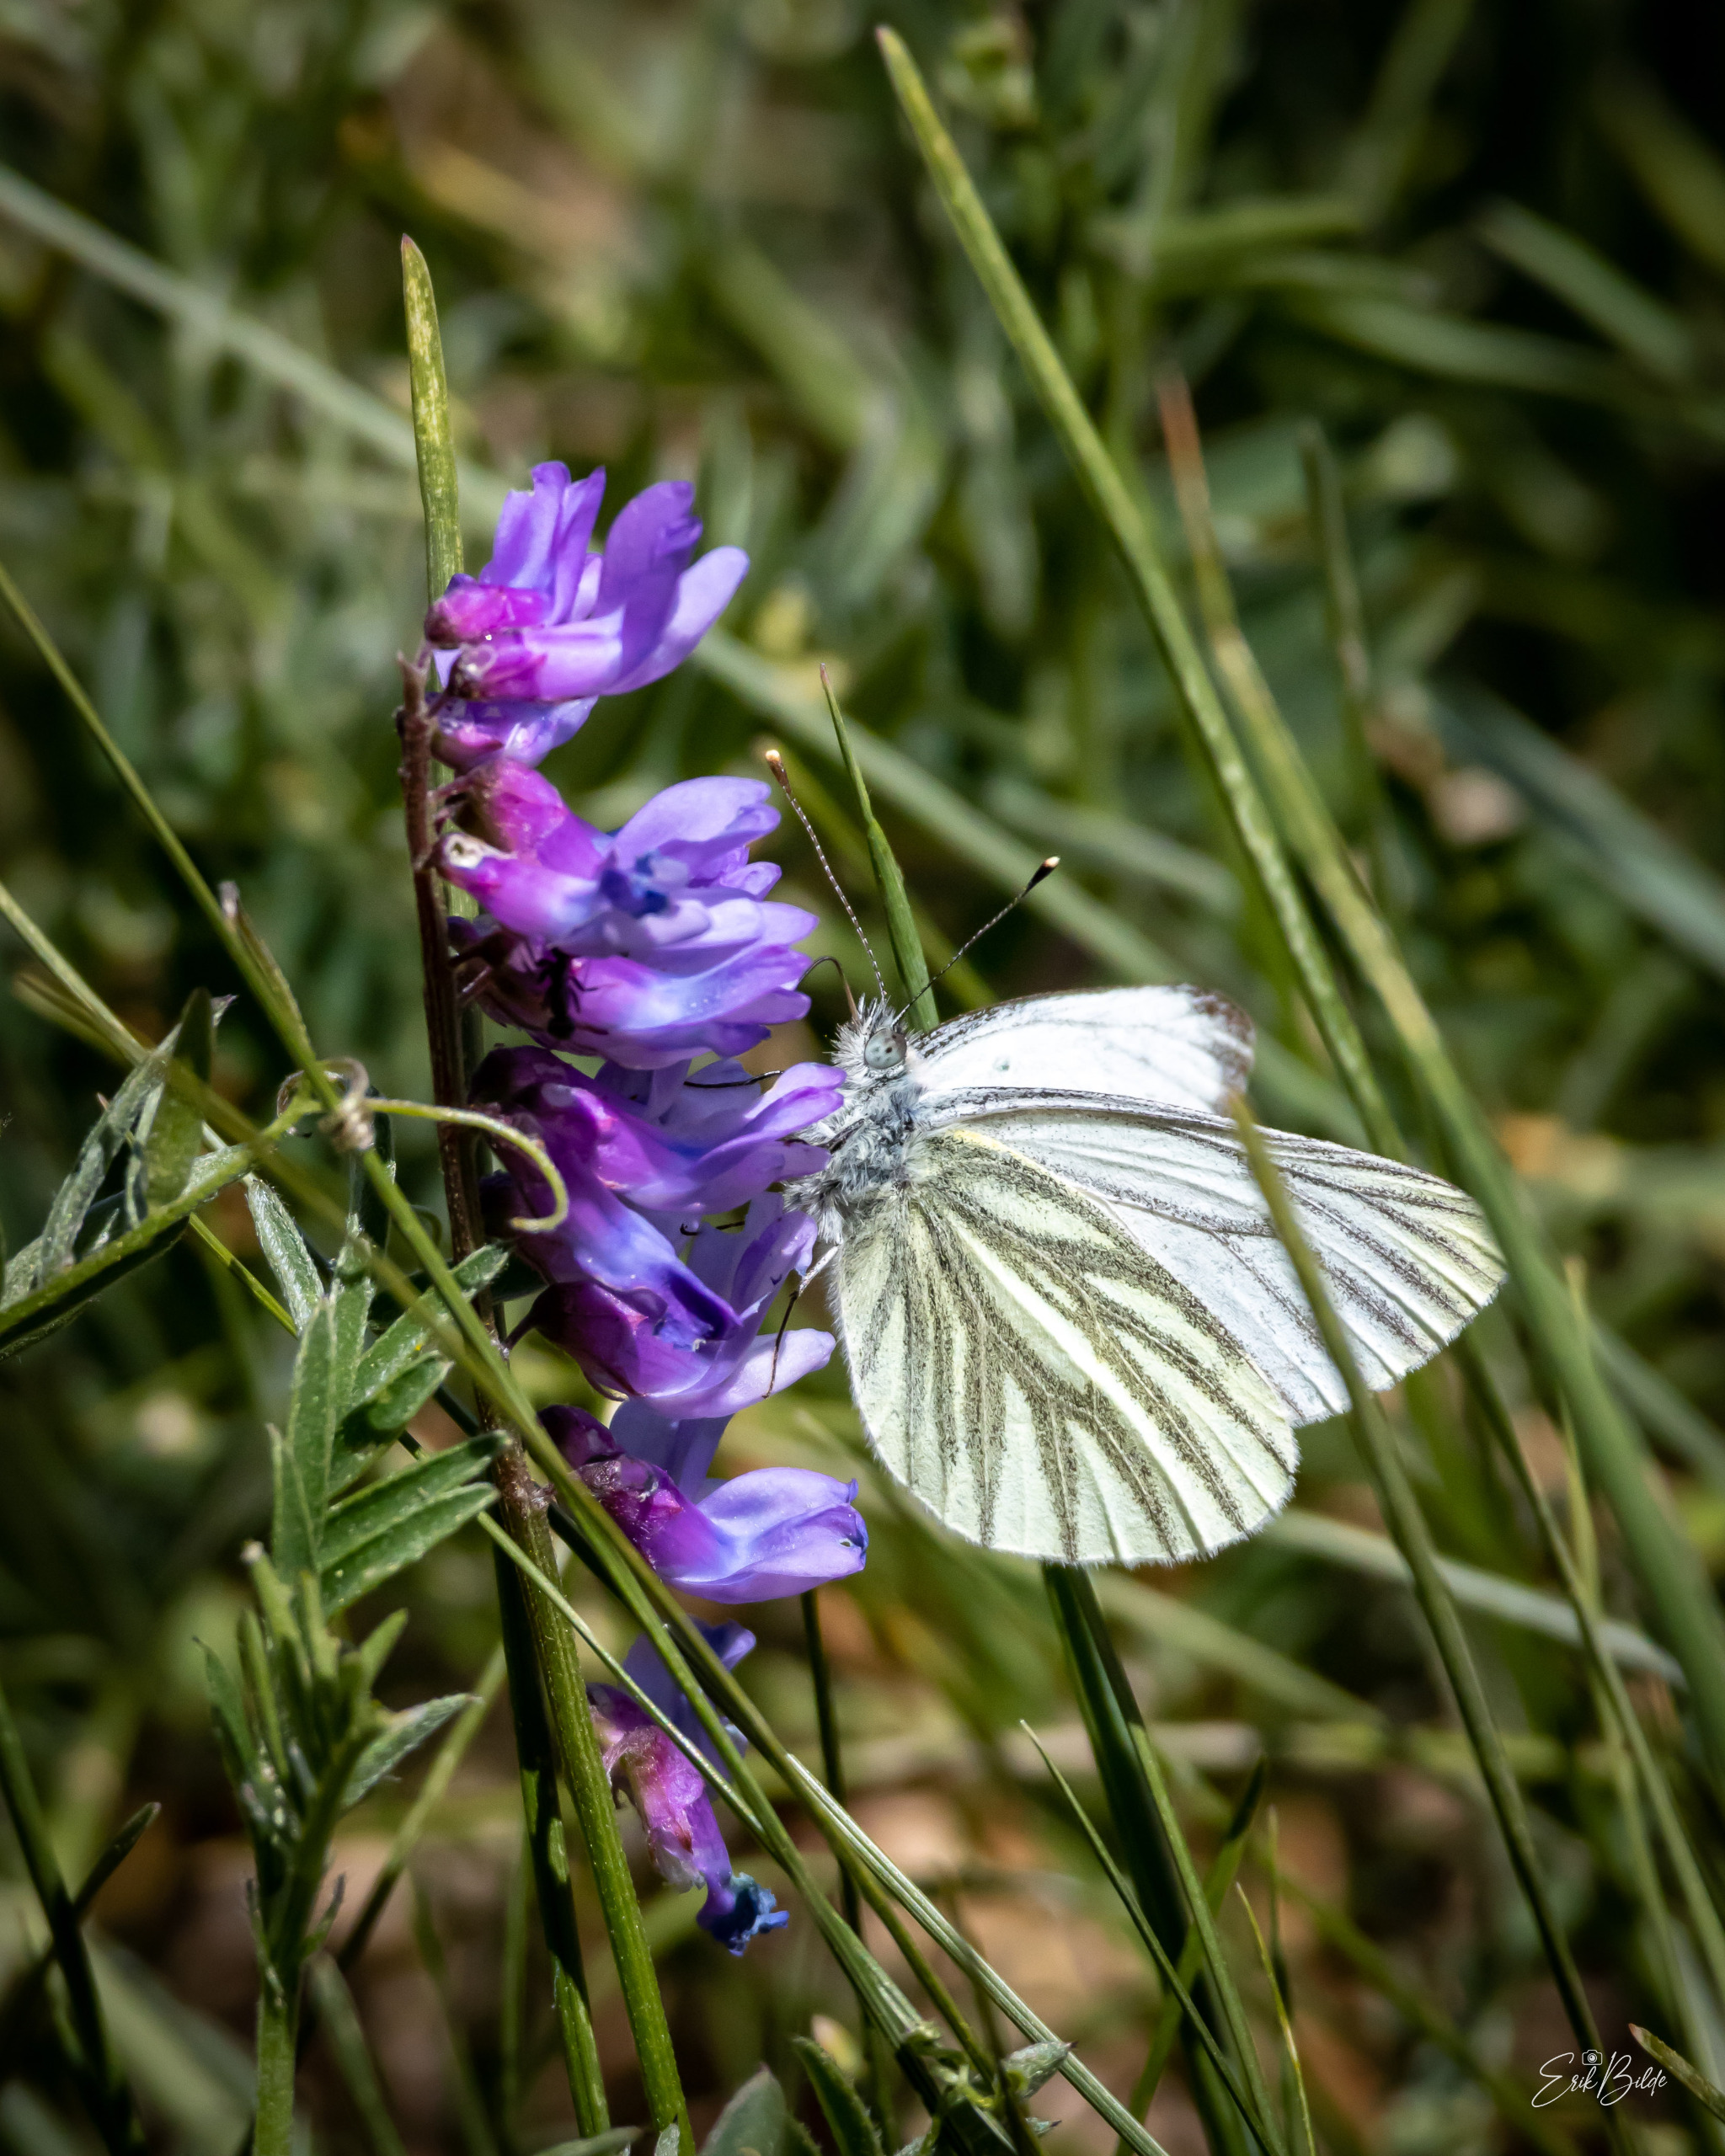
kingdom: Animalia
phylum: Arthropoda
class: Insecta
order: Lepidoptera
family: Pieridae
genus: Pieris
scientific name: Pieris napi
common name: Grønåret kålsommerfugl
